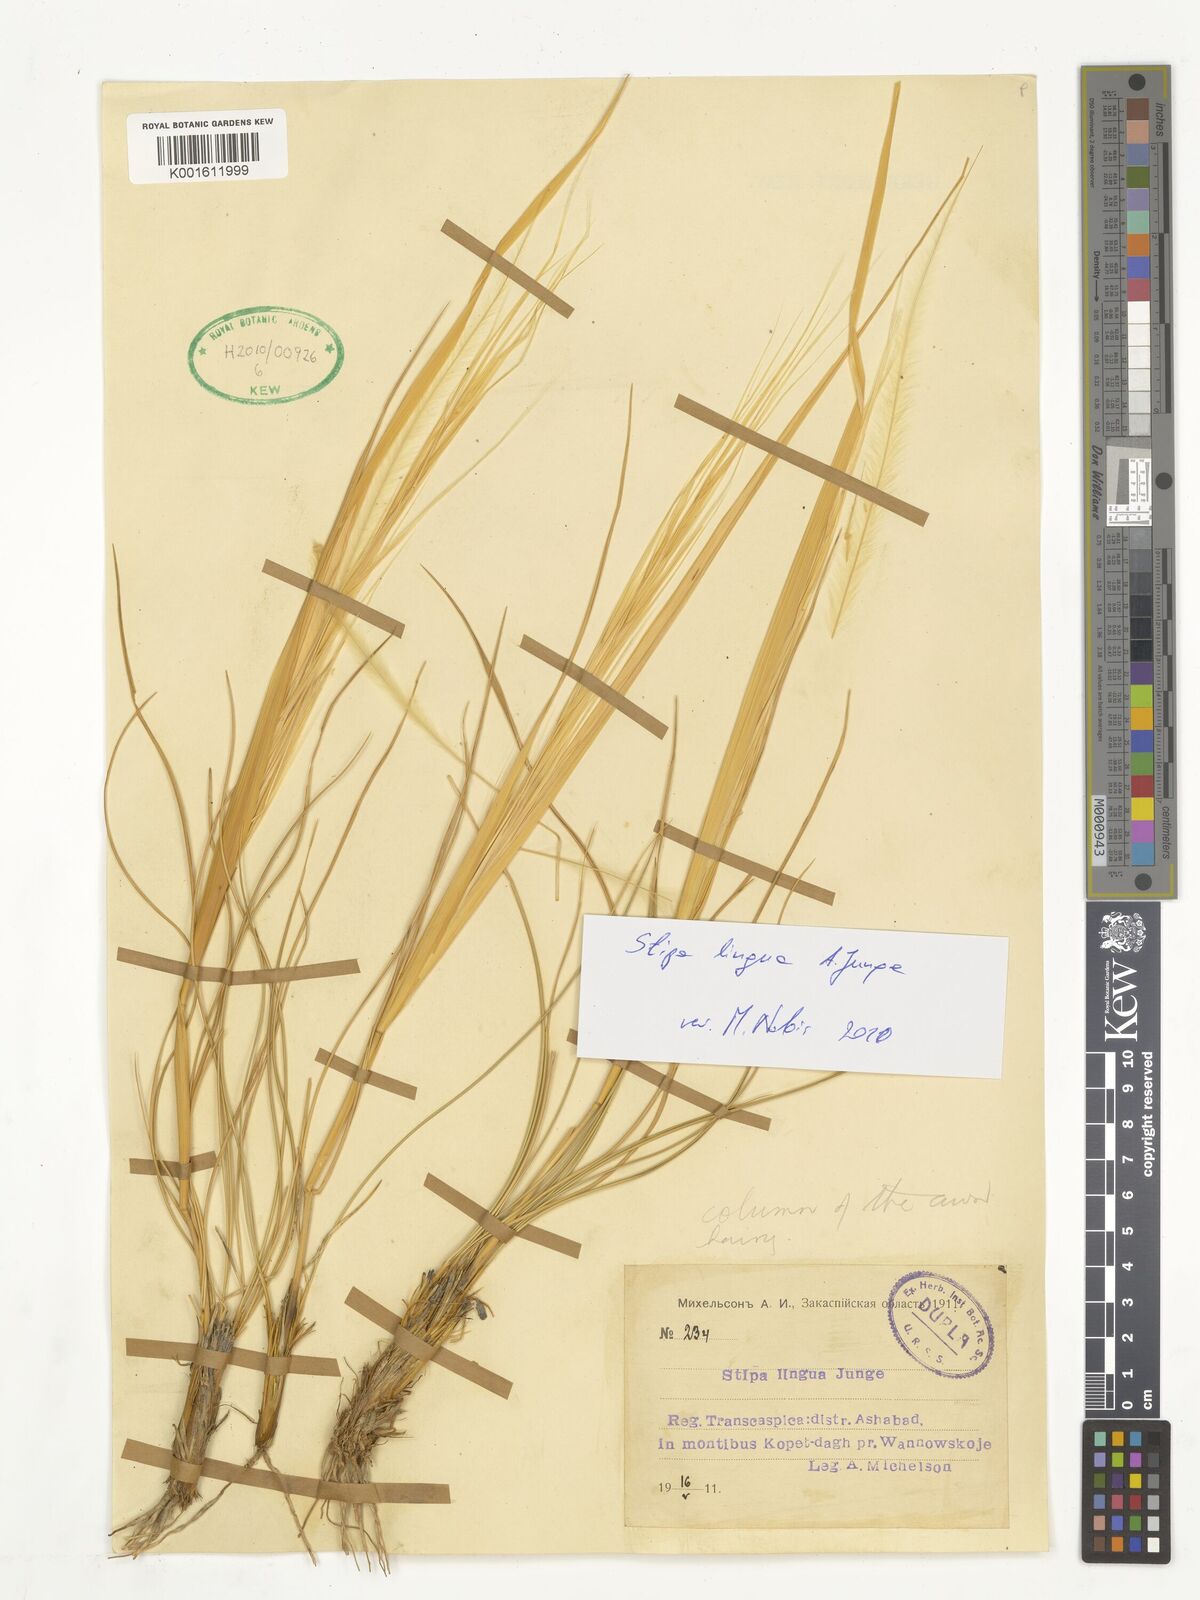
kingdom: Plantae
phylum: Tracheophyta
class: Liliopsida
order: Poales
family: Poaceae
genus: Stipa
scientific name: Stipa lingua
